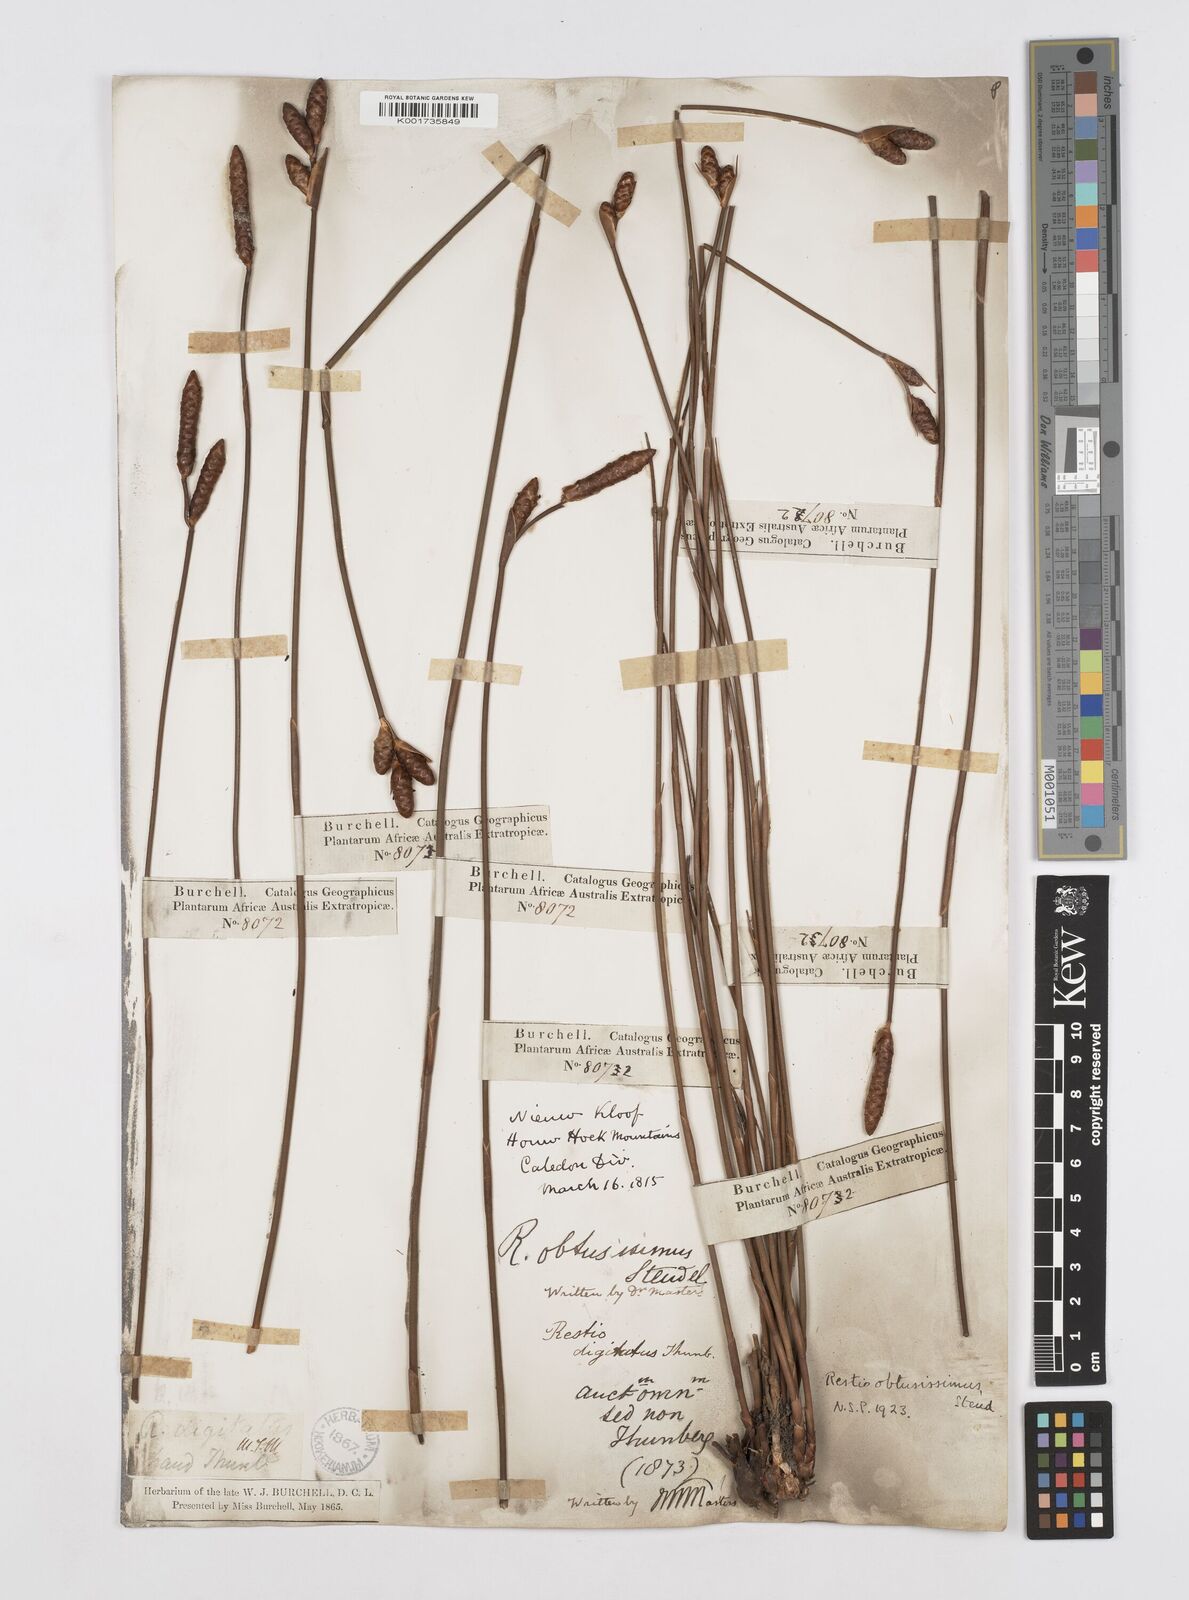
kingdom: Plantae
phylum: Tracheophyta
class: Liliopsida
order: Poales
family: Restionaceae
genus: Nevillea
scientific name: Nevillea obtusissimus
